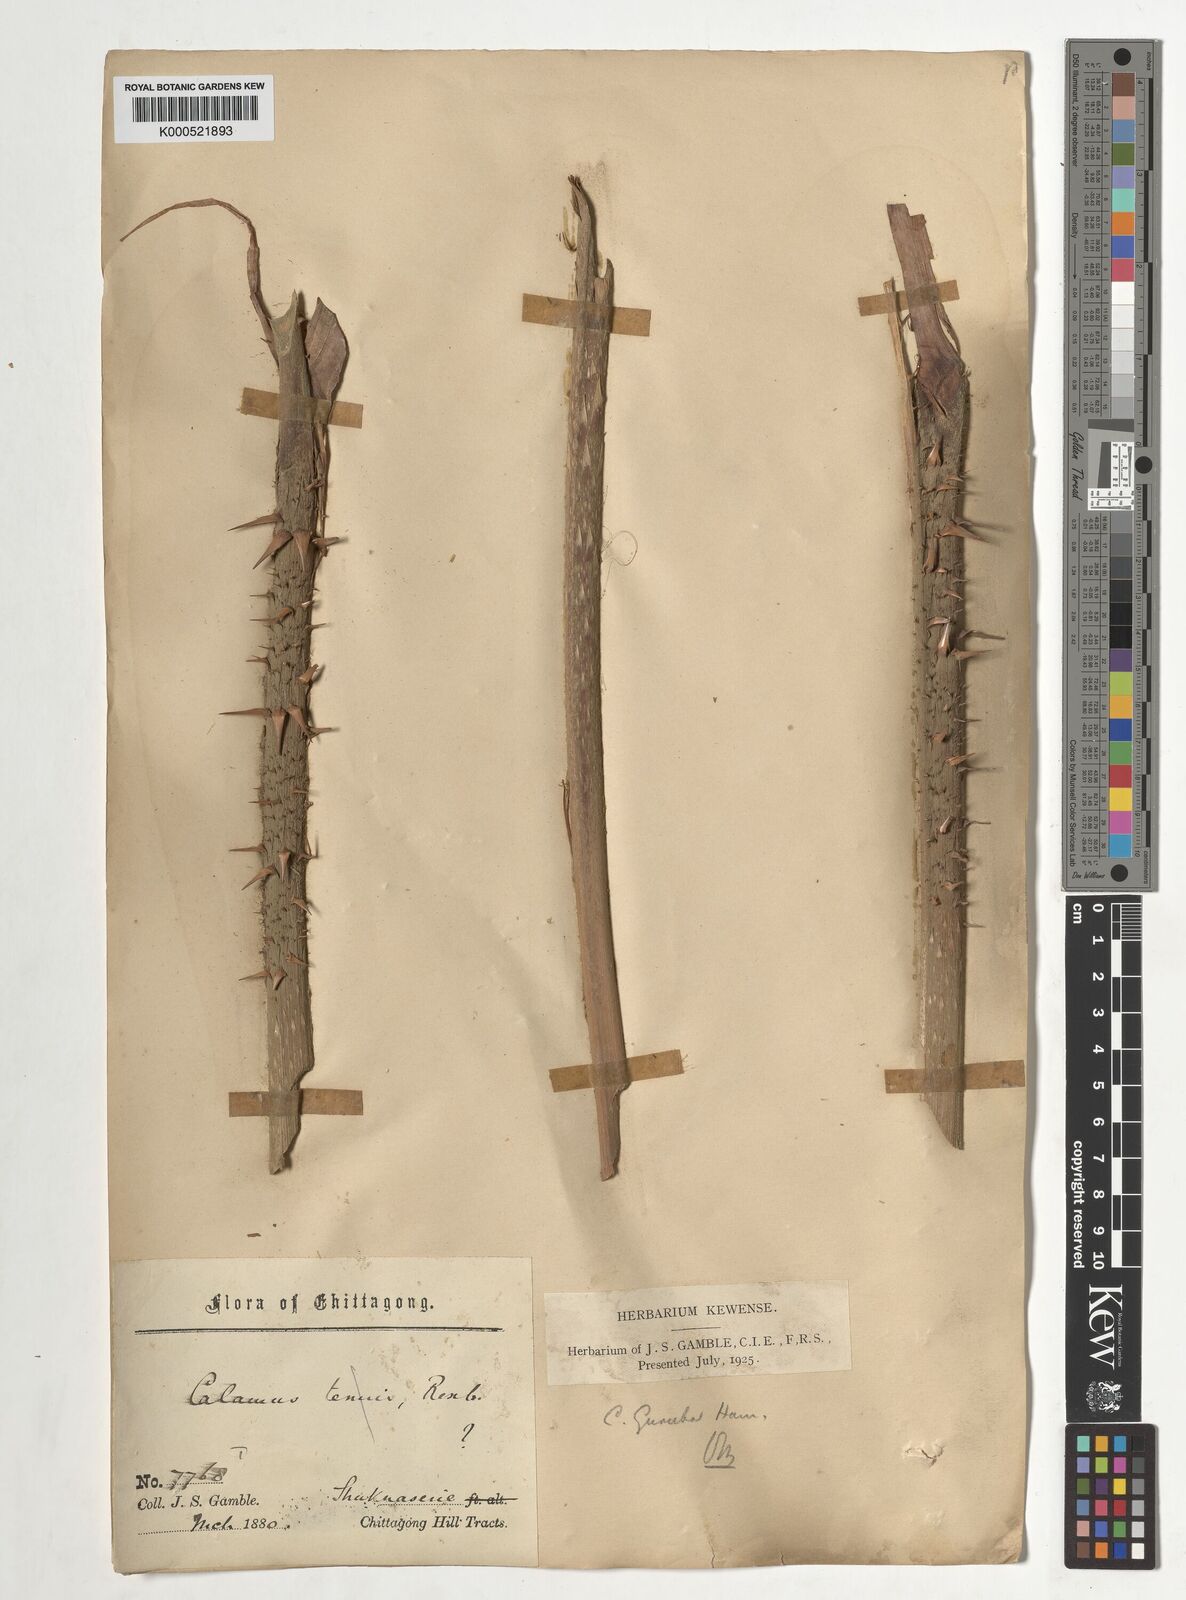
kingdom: Plantae
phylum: Tracheophyta
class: Liliopsida
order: Arecales
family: Arecaceae
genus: Calamus
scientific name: Calamus
